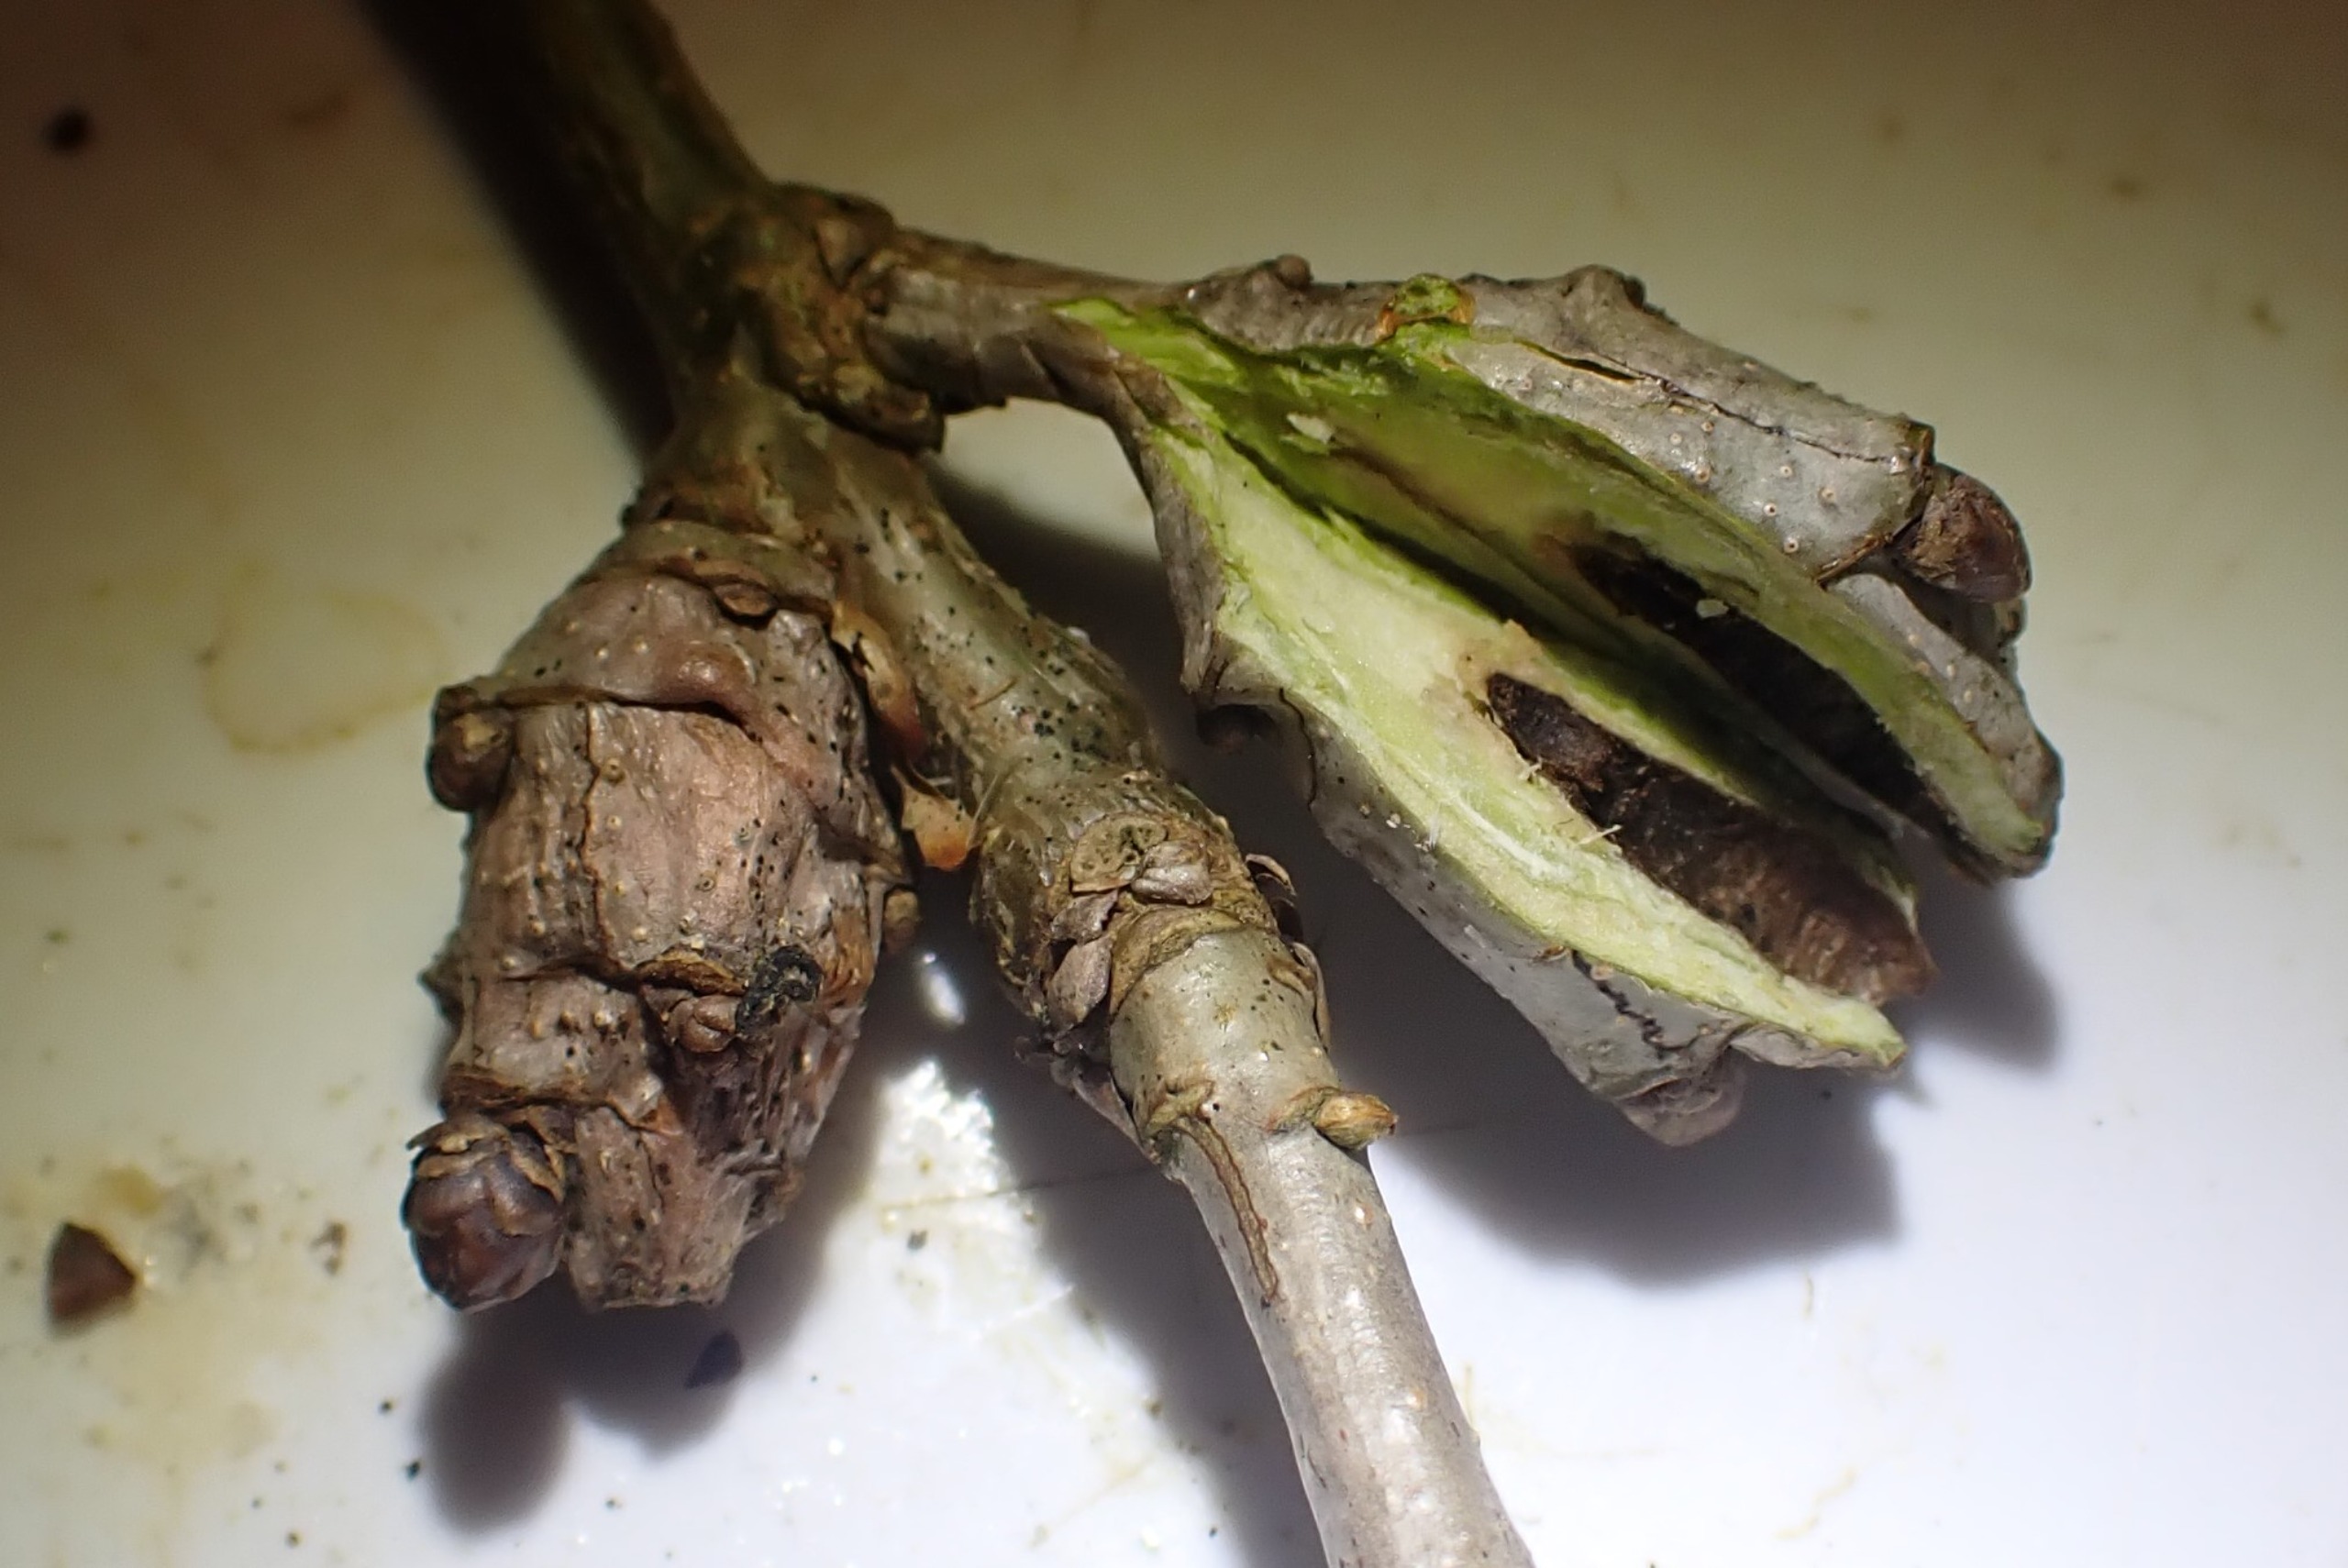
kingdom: Animalia
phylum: Arthropoda
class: Insecta
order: Hymenoptera
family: Cynipidae
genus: Andricus
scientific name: Andricus inflator
